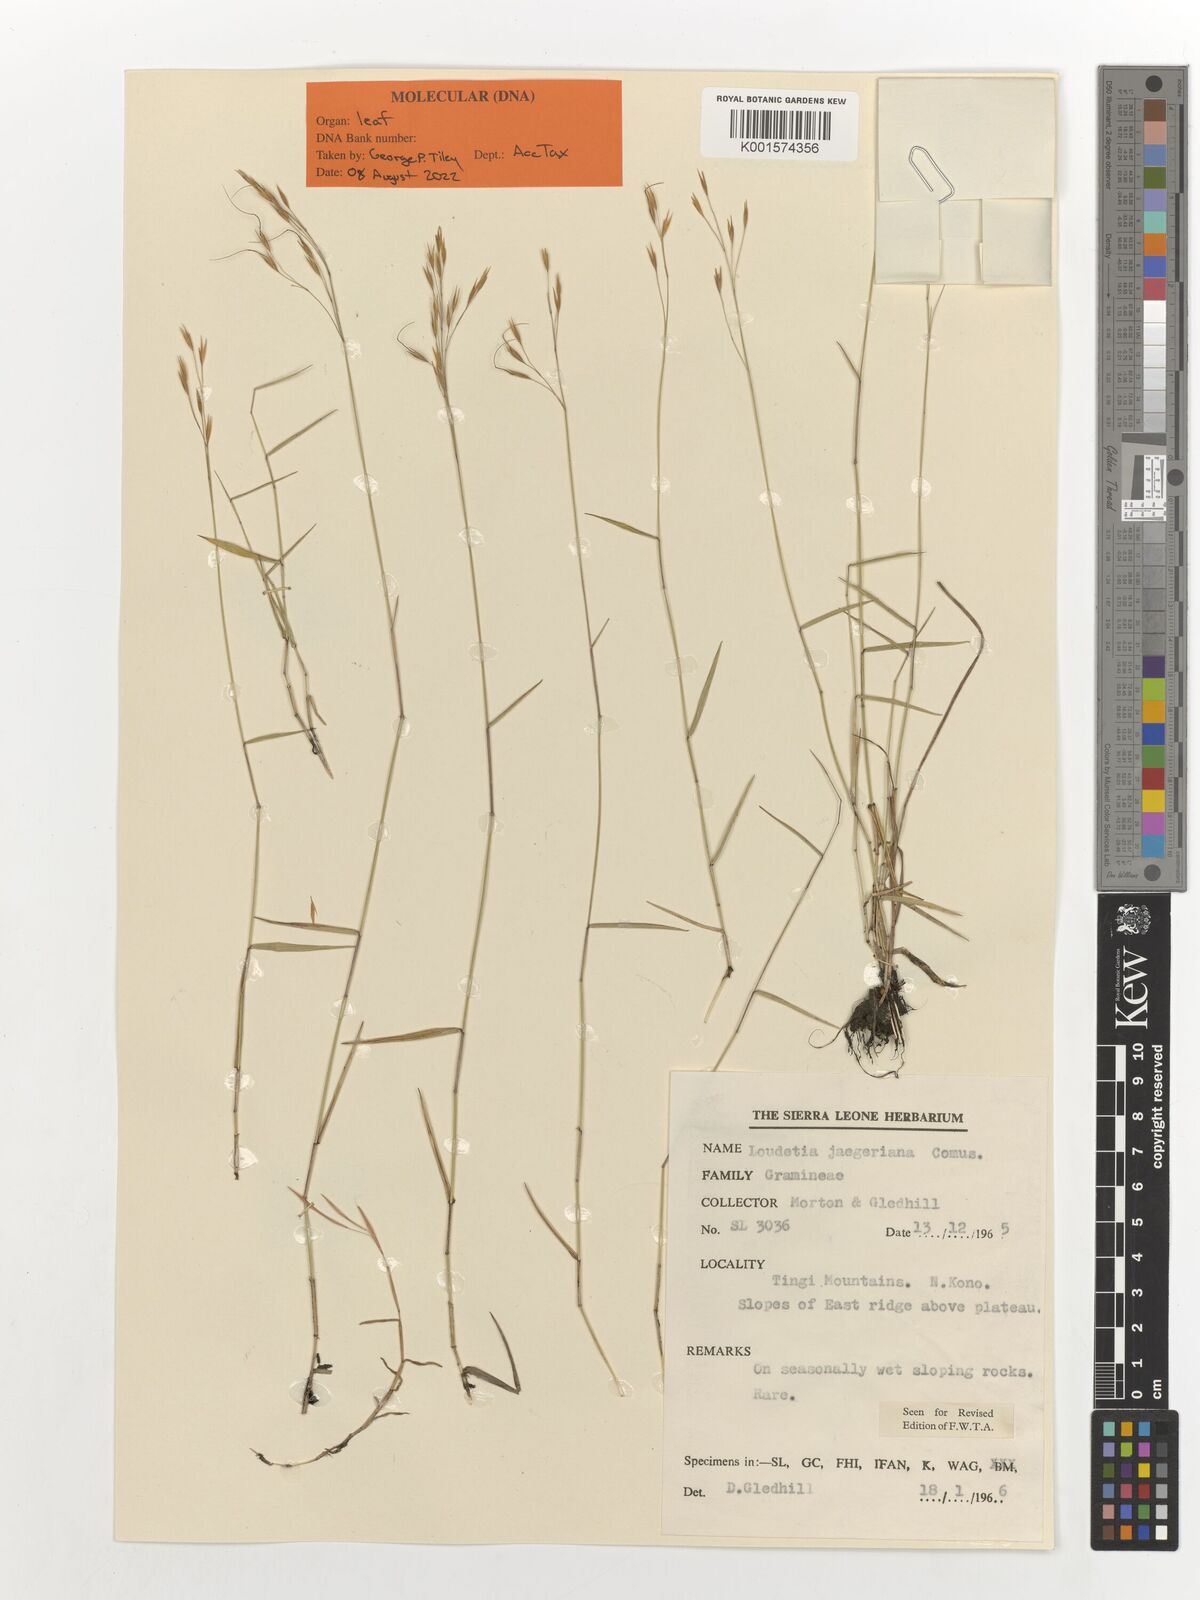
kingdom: Plantae
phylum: Tracheophyta
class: Liliopsida
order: Poales
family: Poaceae
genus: Loudetia
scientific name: Loudetia jaegeriana
